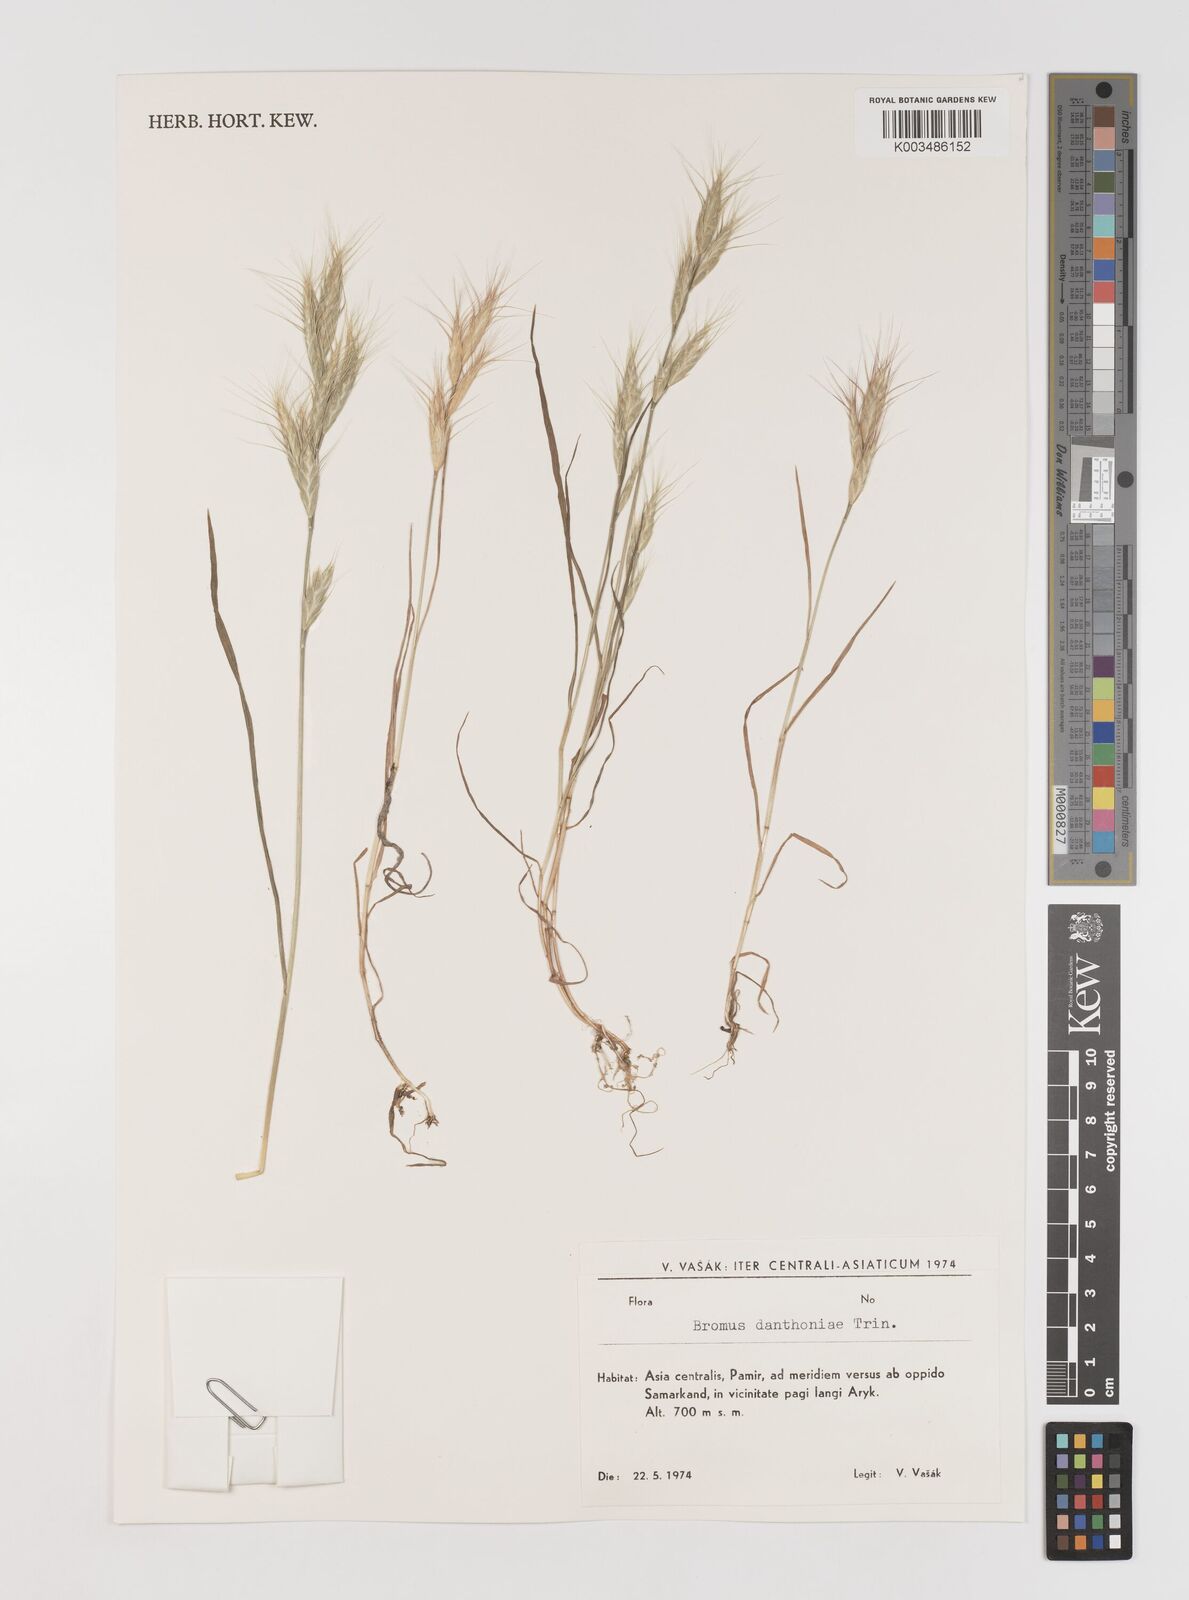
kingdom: Plantae
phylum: Tracheophyta
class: Liliopsida
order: Poales
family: Poaceae
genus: Bromus
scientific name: Bromus danthoniae
